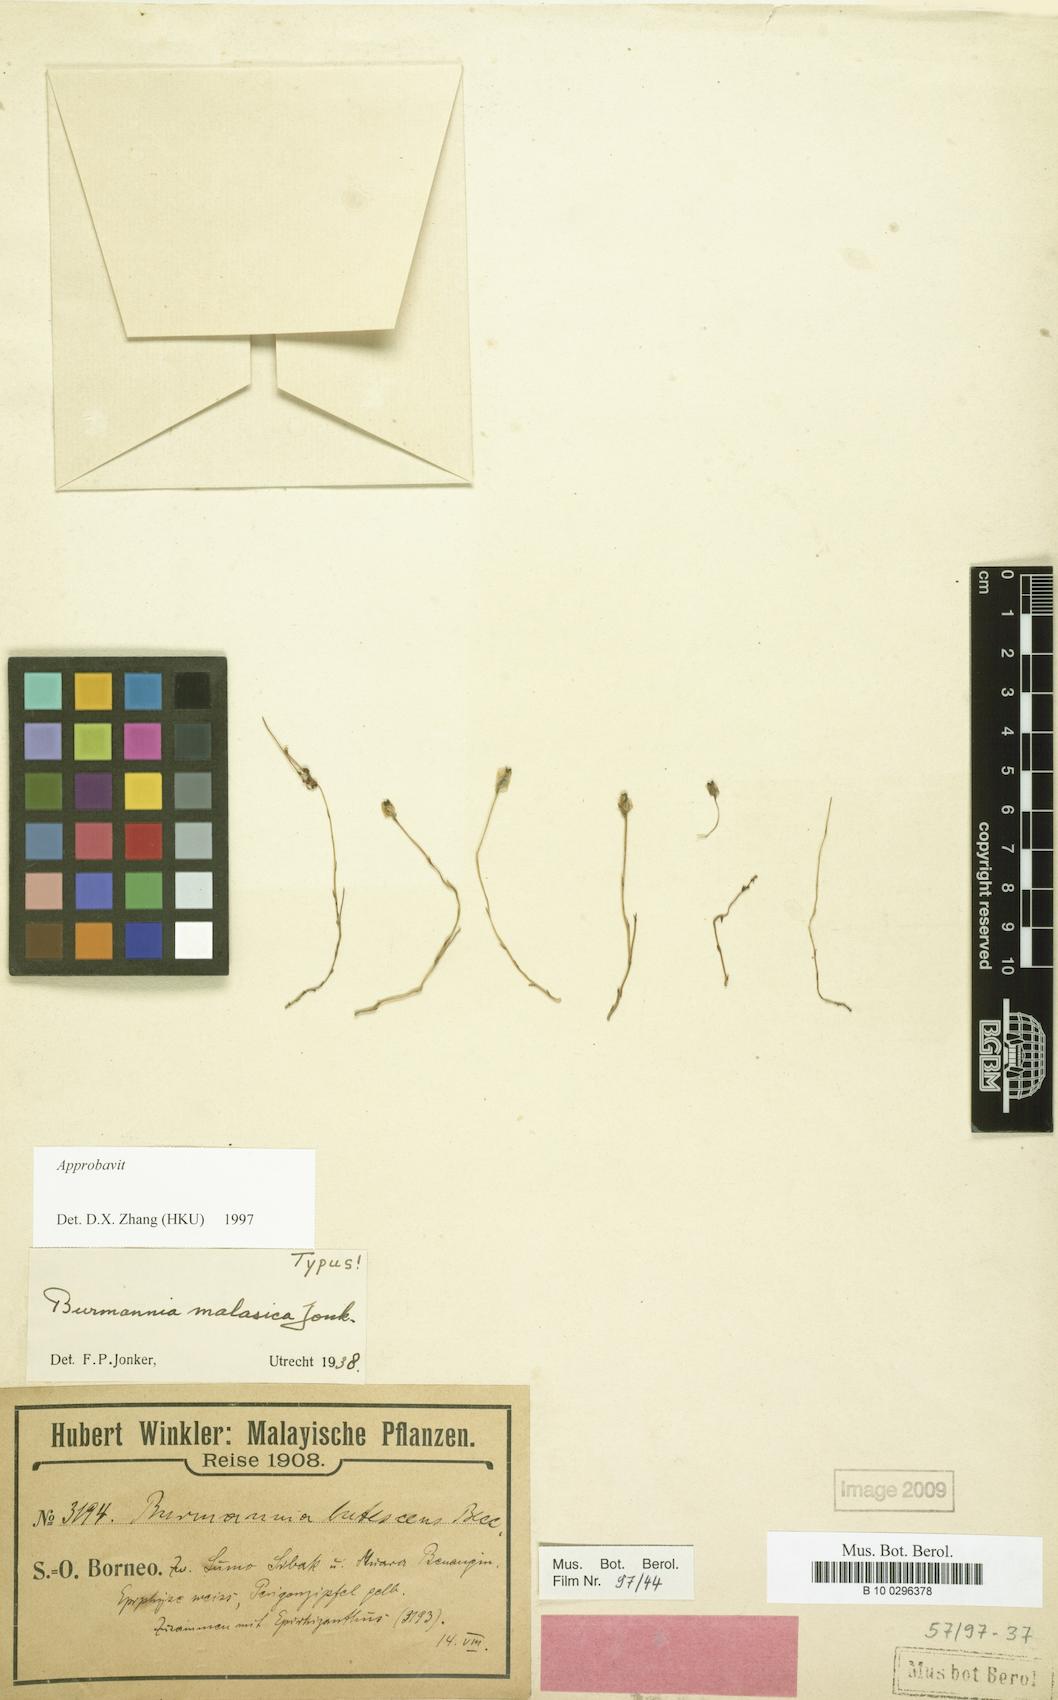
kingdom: Plantae
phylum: Tracheophyta
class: Liliopsida
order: Dioscoreales
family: Burmanniaceae
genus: Burmannia
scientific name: Burmannia malasica
